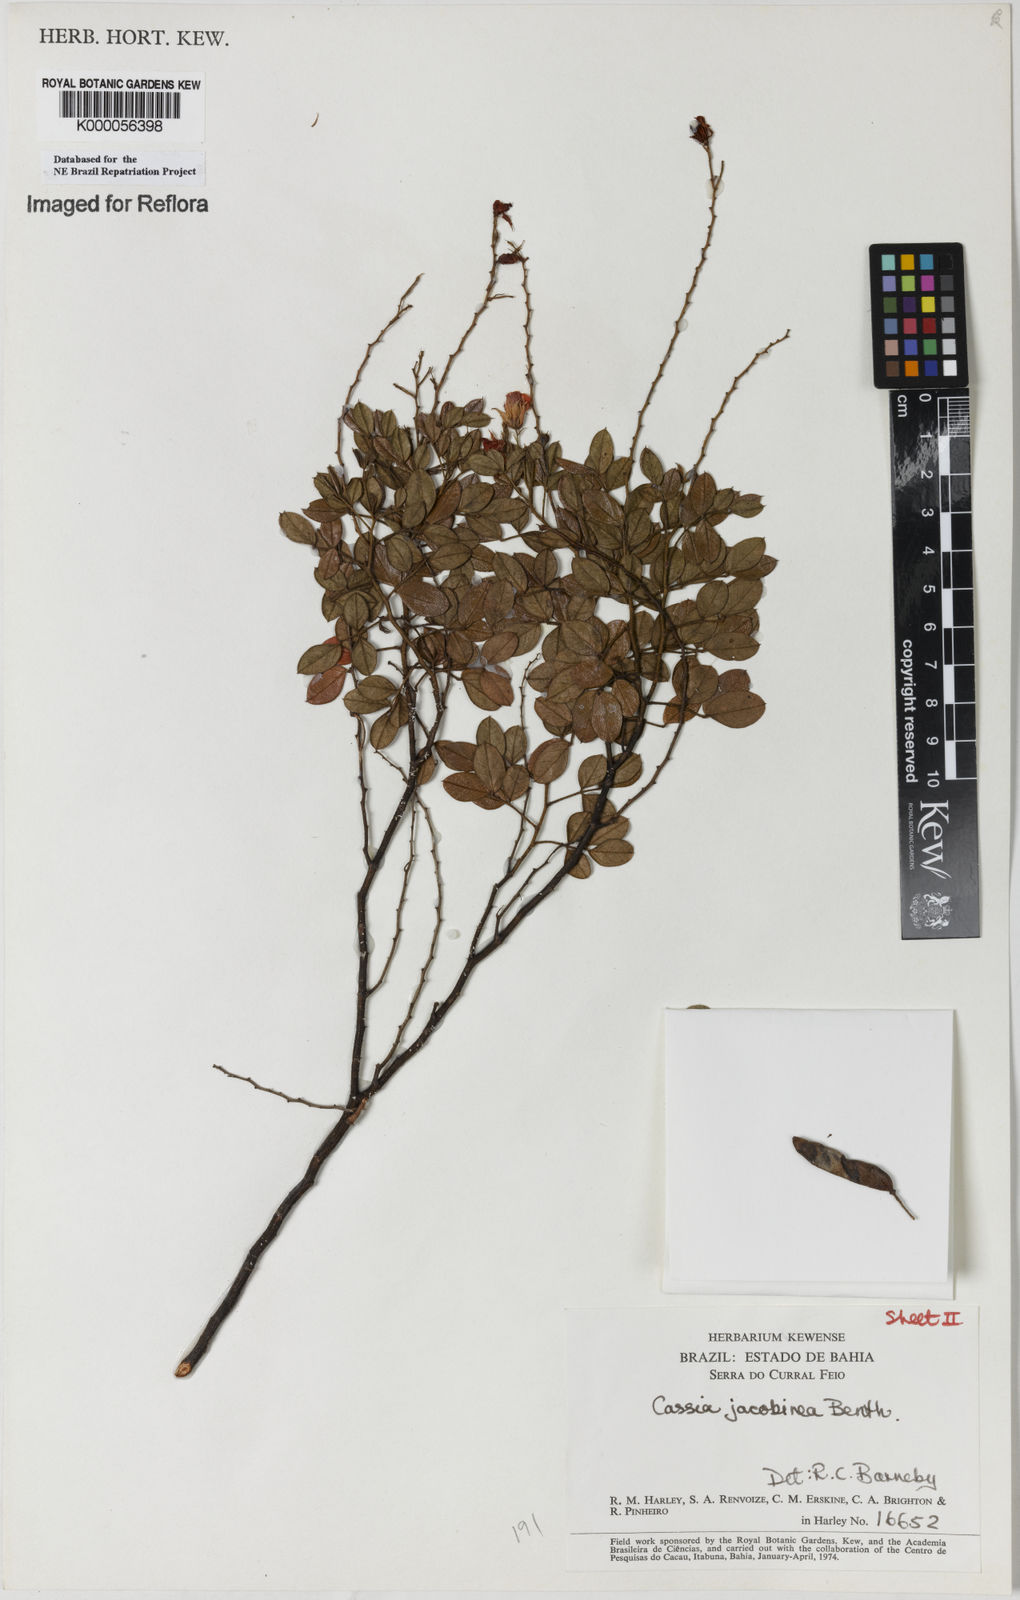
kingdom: Plantae
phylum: Tracheophyta
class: Magnoliopsida
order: Fabales
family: Fabaceae
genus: Chamaecrista
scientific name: Chamaecrista jacobinea
